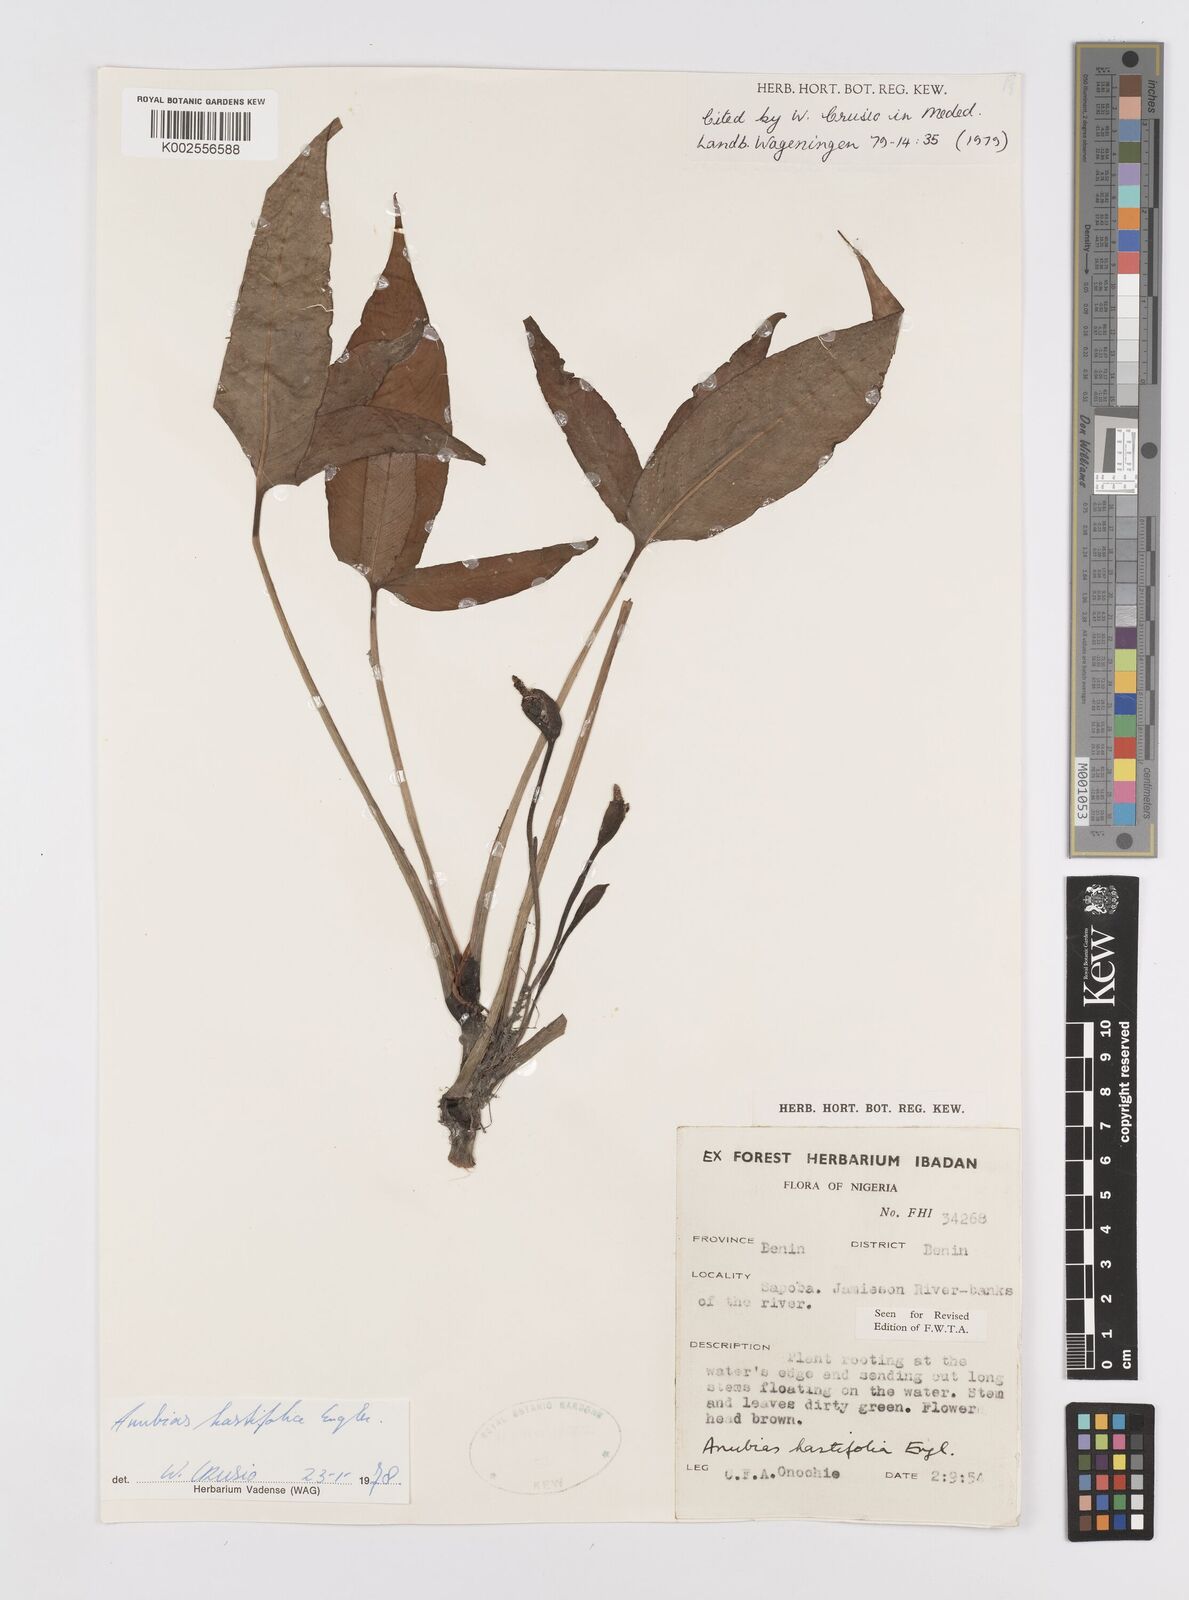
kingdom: Plantae
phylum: Tracheophyta
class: Liliopsida
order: Alismatales
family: Araceae
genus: Anubias
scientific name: Anubias hastifolia
